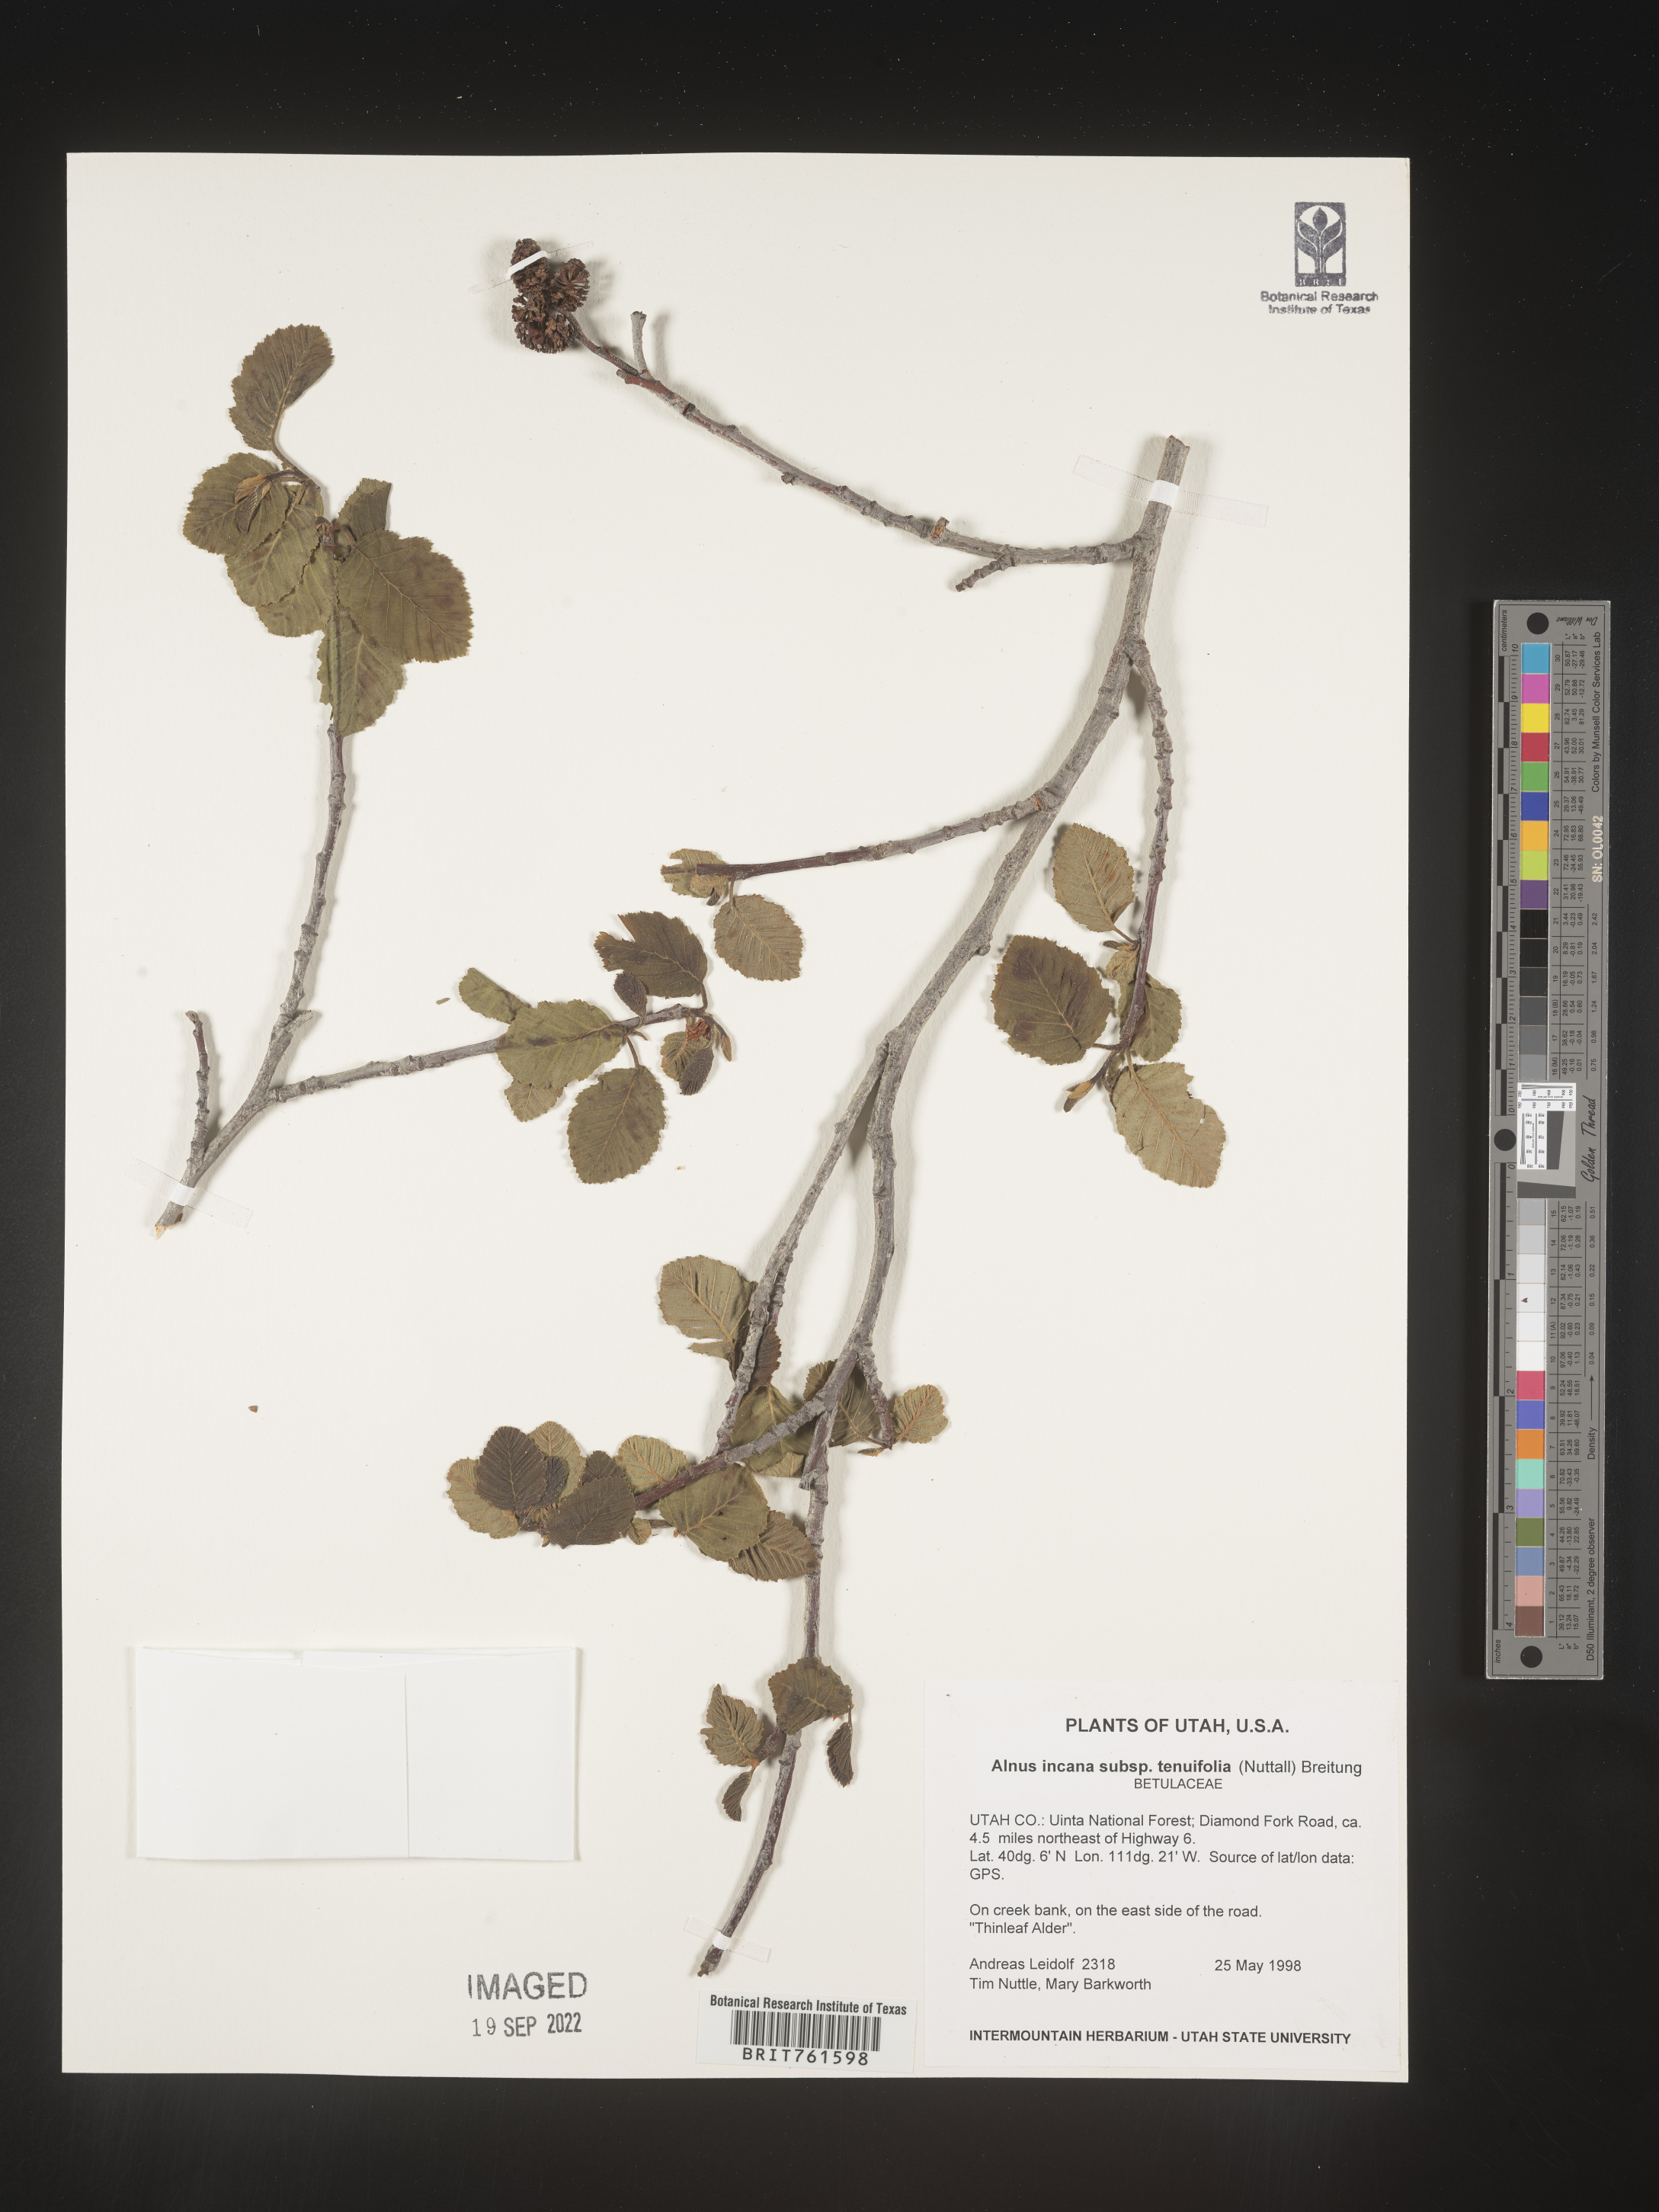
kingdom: Plantae
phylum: Tracheophyta
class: Magnoliopsida
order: Fagales
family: Betulaceae
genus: Alnus
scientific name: Alnus incana
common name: Grey alder
